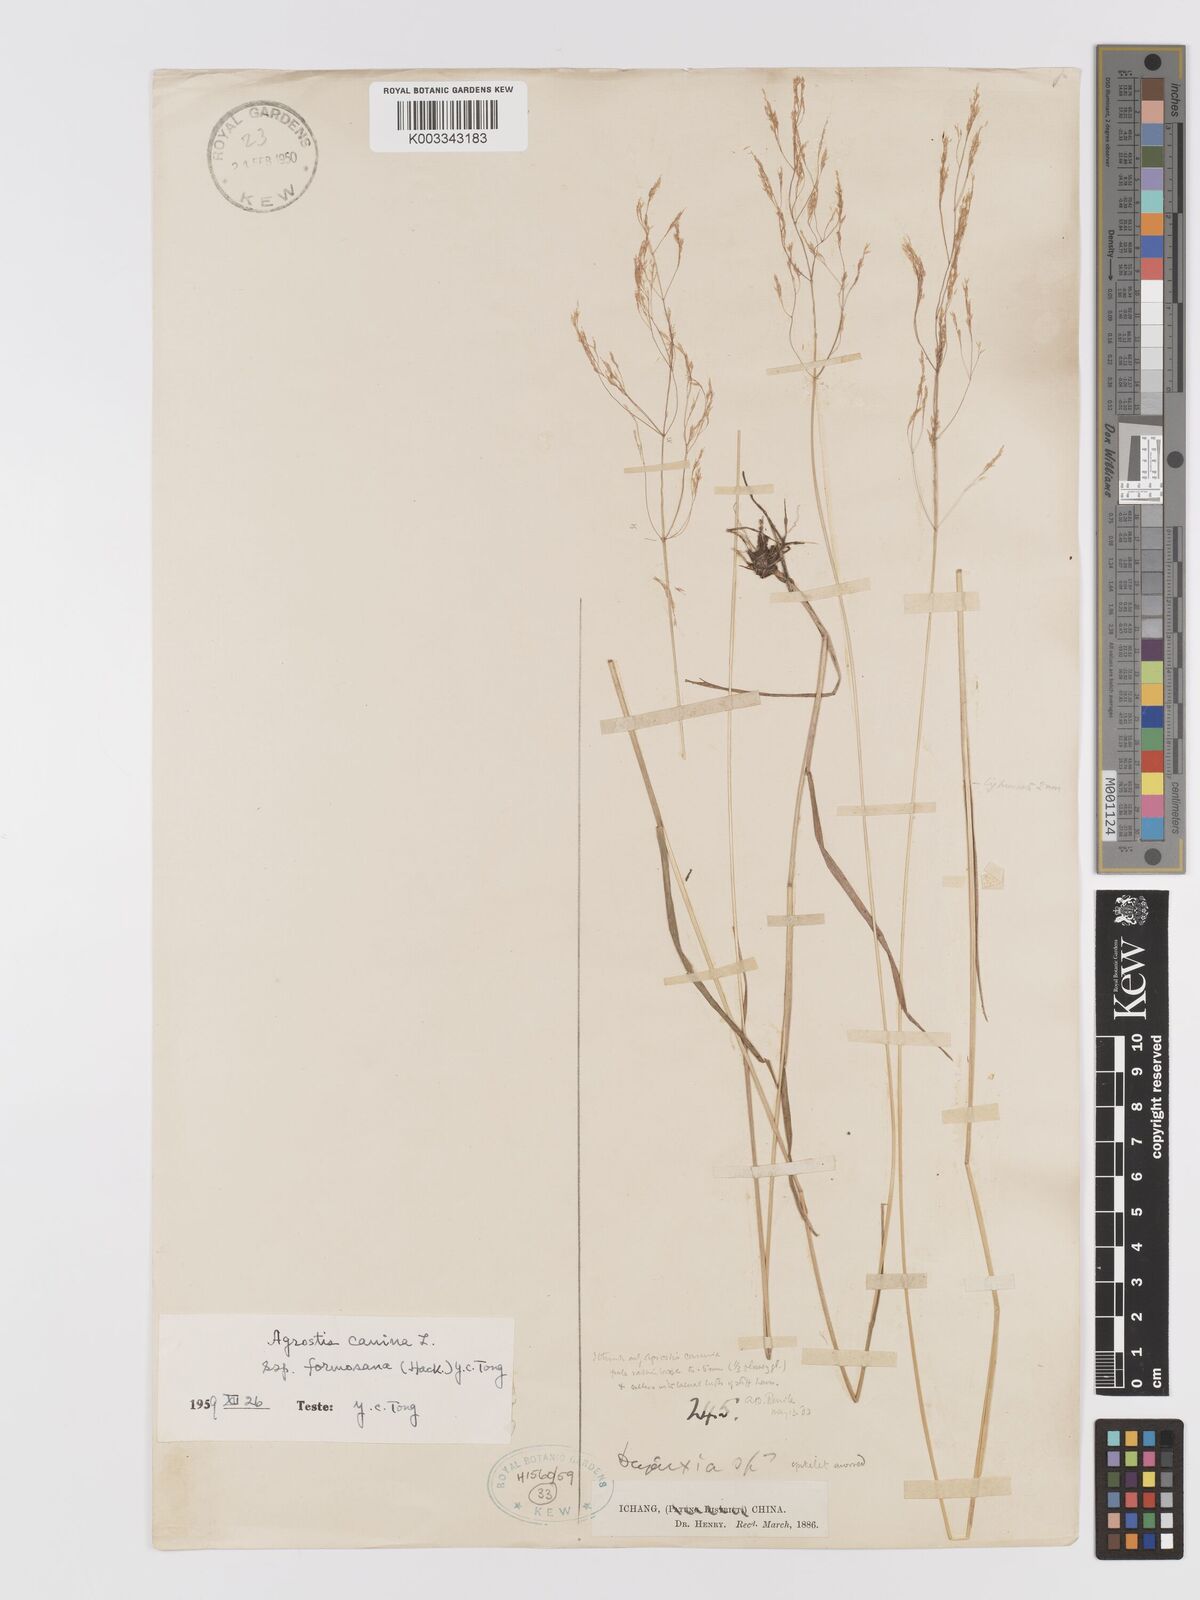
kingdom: Plantae
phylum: Tracheophyta
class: Liliopsida
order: Poales
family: Poaceae
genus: Agrostis
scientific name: Agrostis infirma
